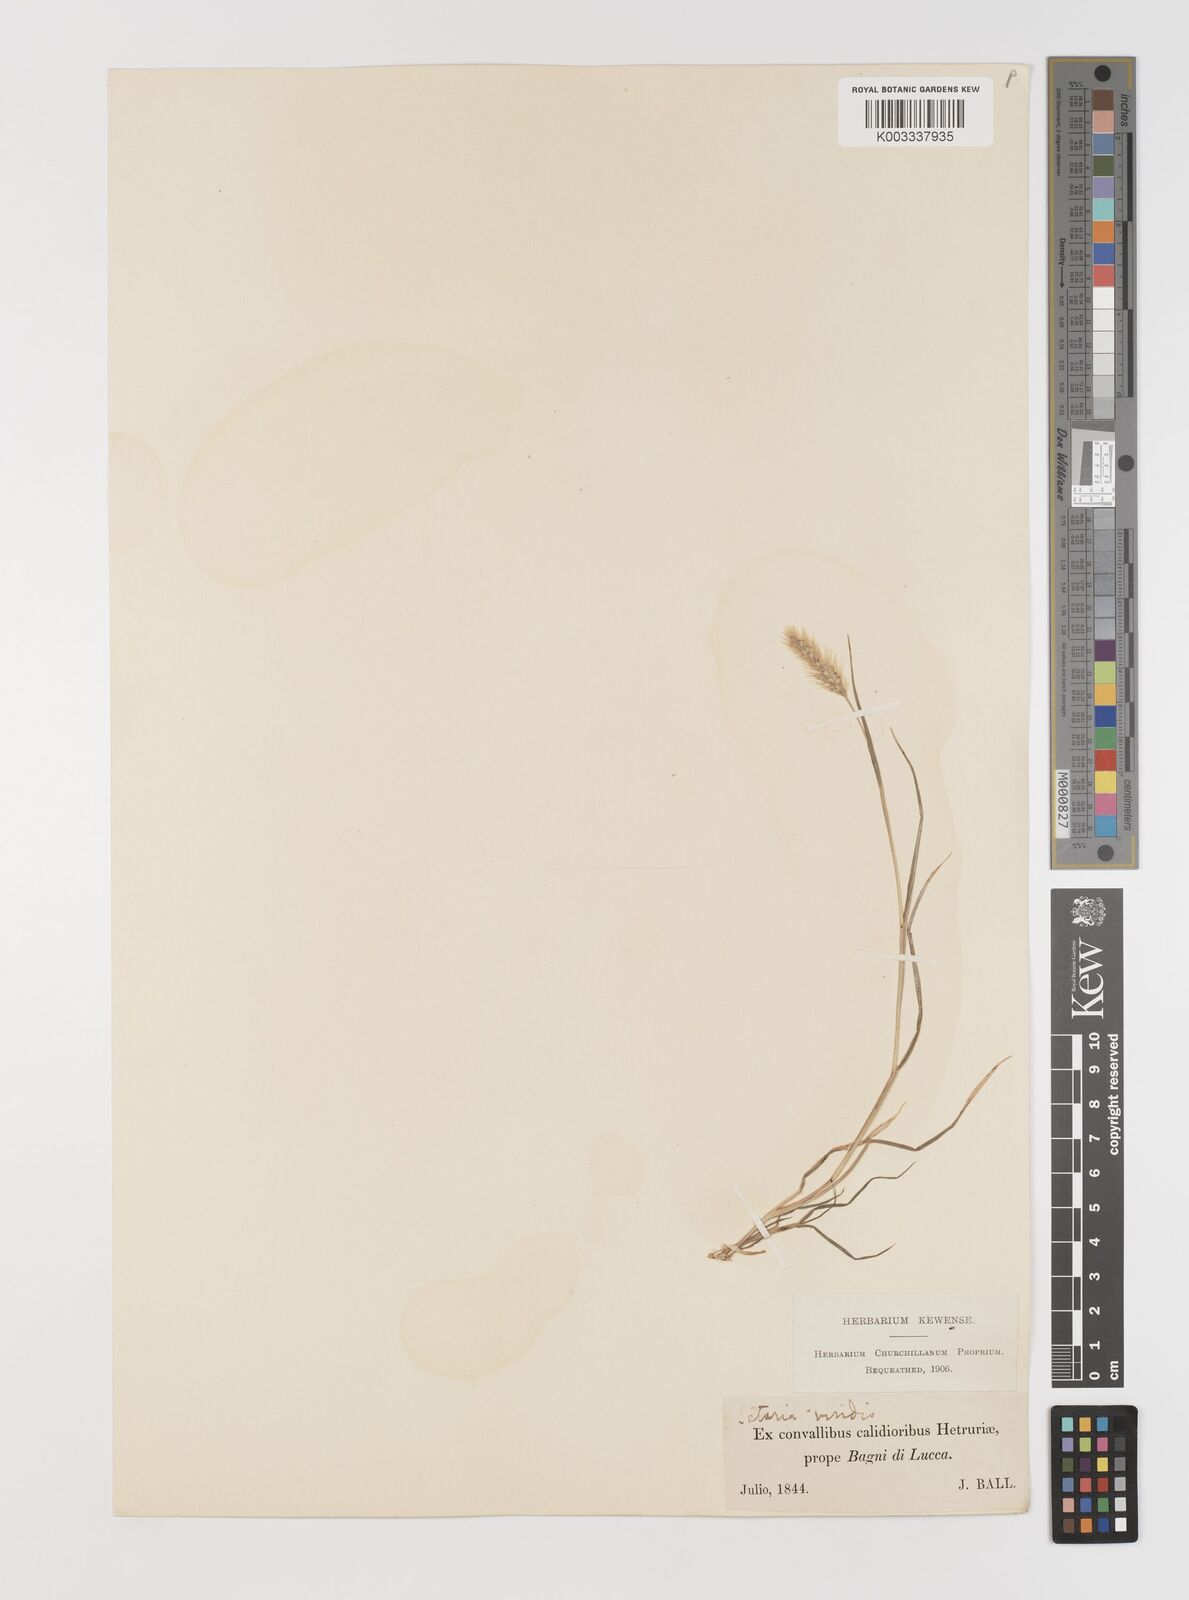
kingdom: Plantae
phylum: Tracheophyta
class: Liliopsida
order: Poales
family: Poaceae
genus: Setaria
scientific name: Setaria viridis
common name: Green bristlegrass
